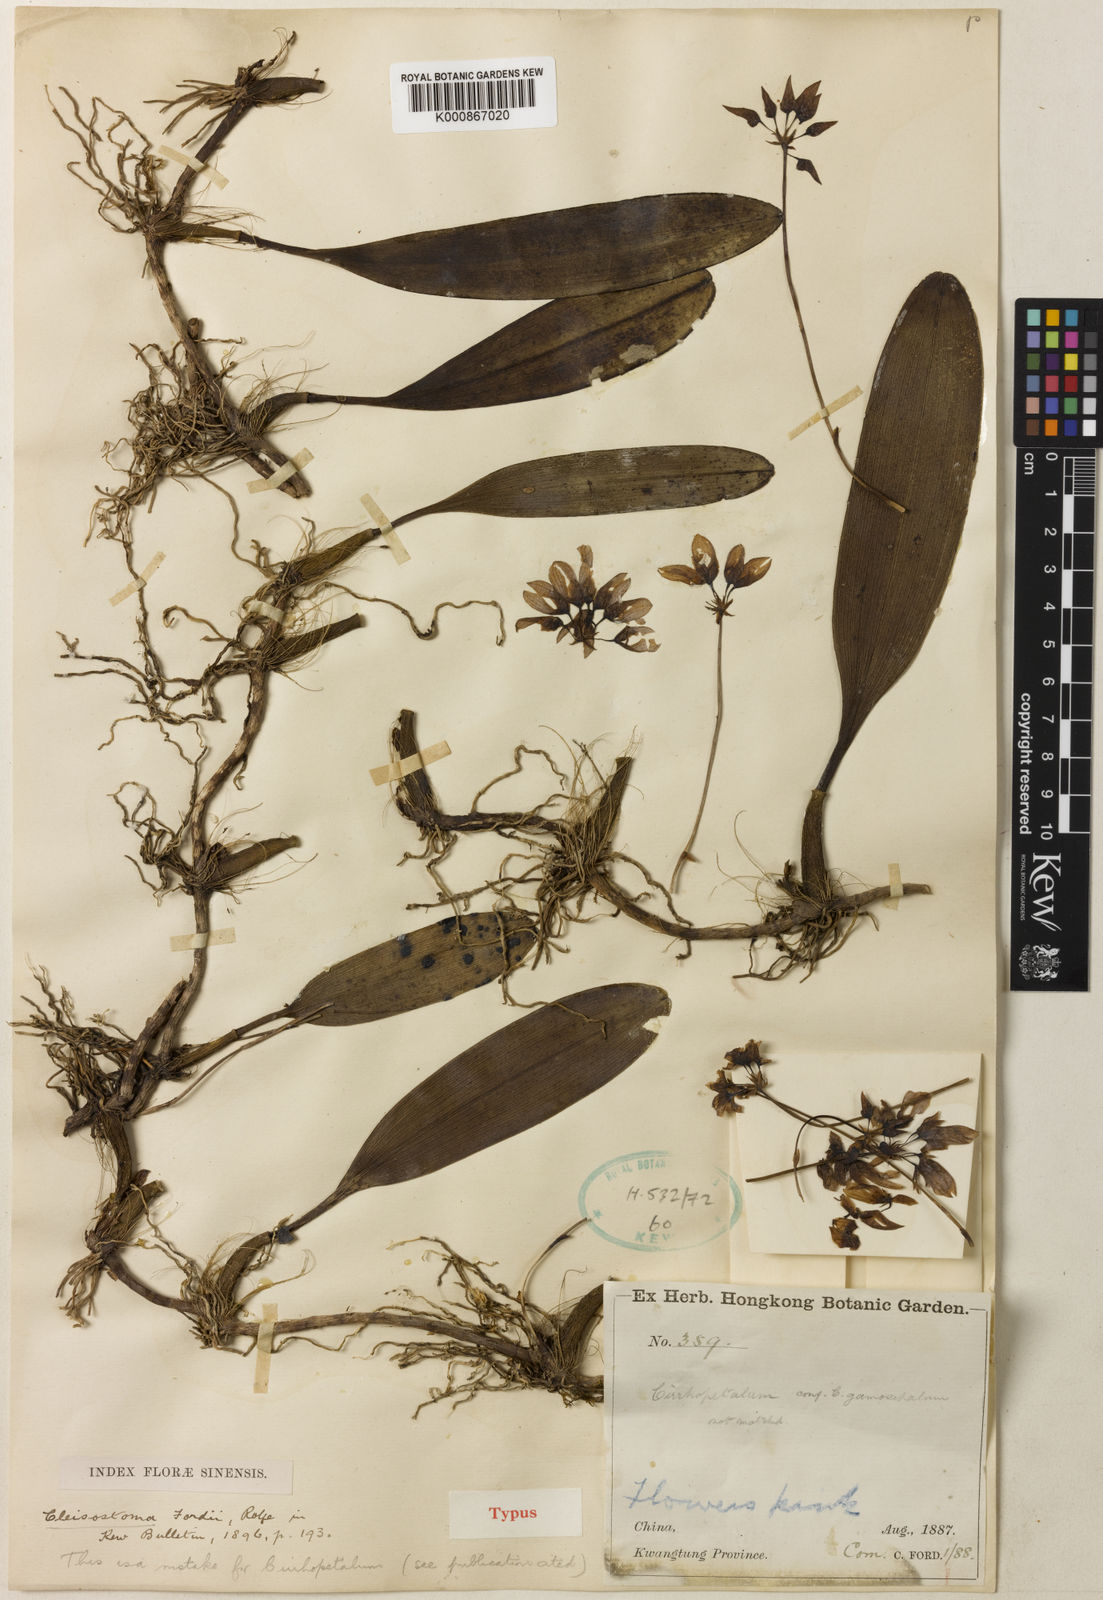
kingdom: Plantae
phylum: Tracheophyta
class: Liliopsida
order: Asparagales
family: Orchidaceae
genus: Bulbophyllum
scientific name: Bulbophyllum fordii
